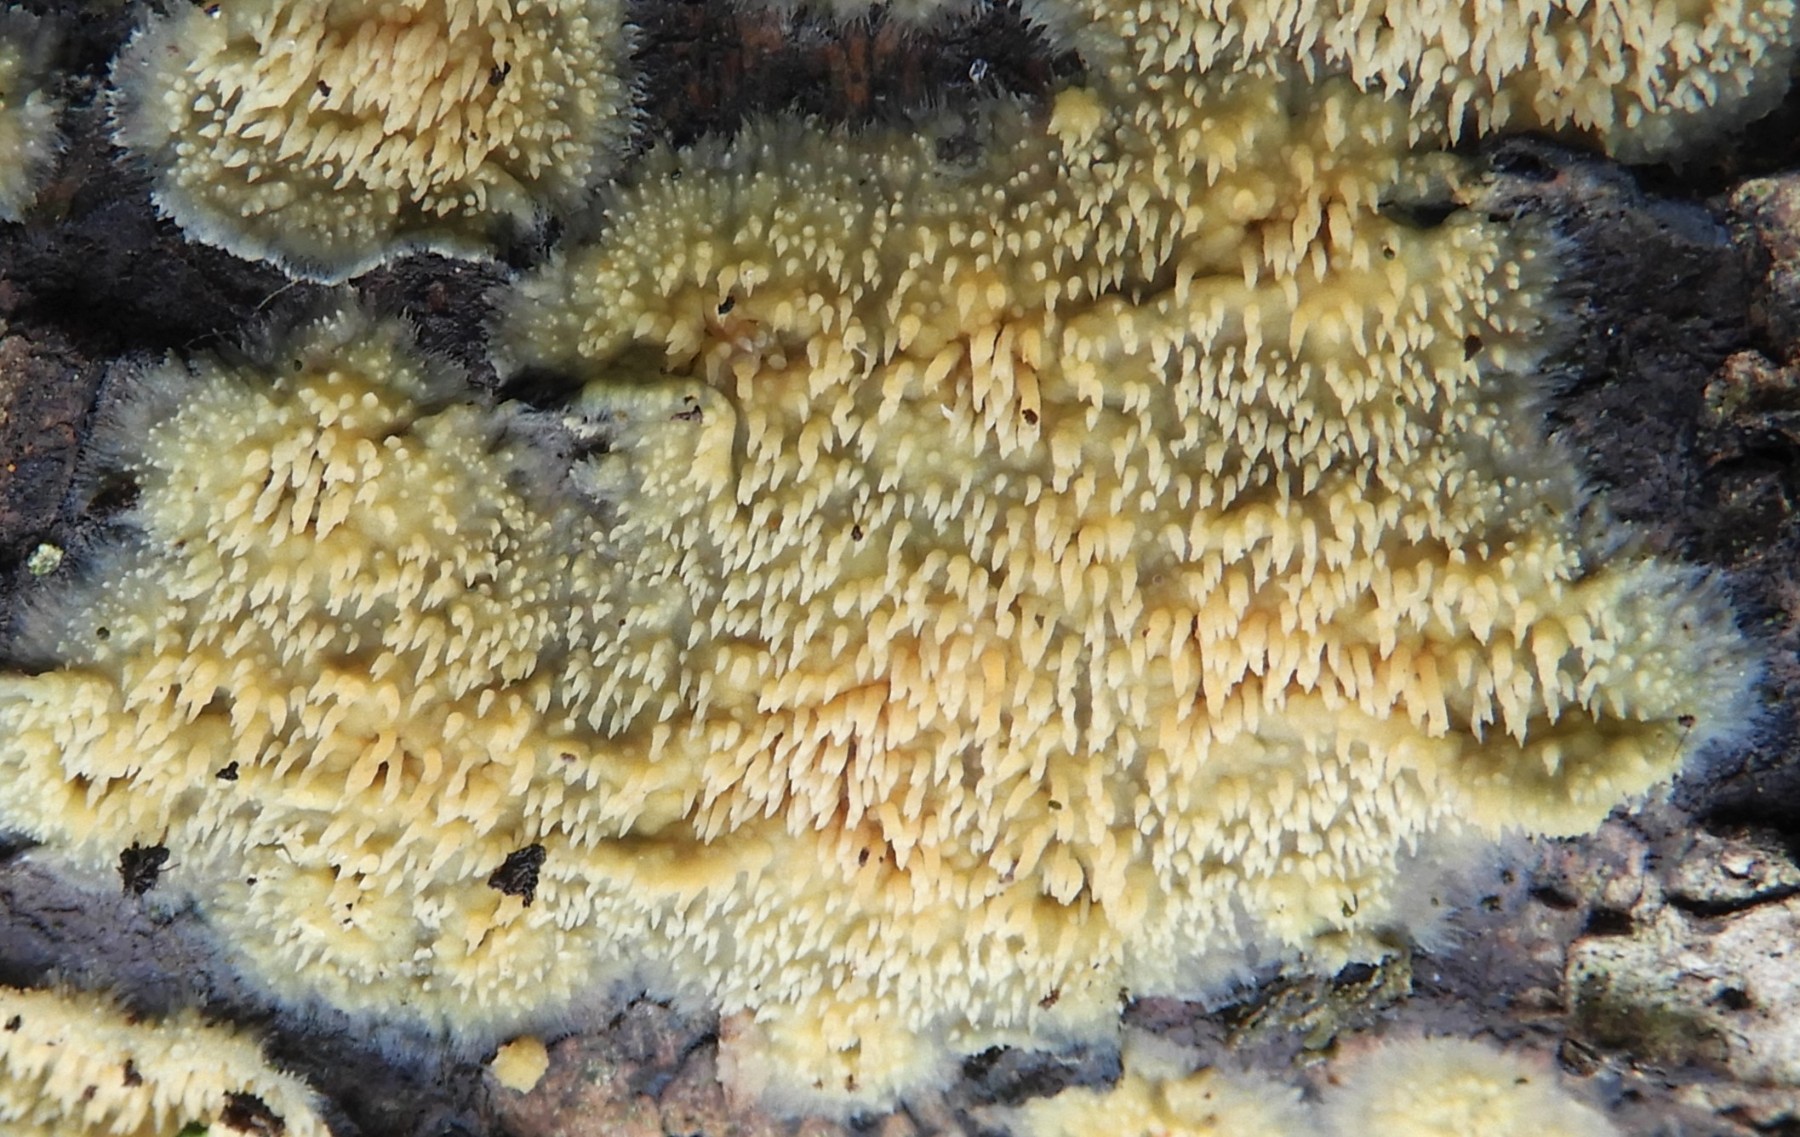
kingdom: Fungi
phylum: Basidiomycota
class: Agaricomycetes
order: Polyporales
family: Meruliaceae
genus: Mycoacia
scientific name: Mycoacia uda
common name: citrongul vokspig
